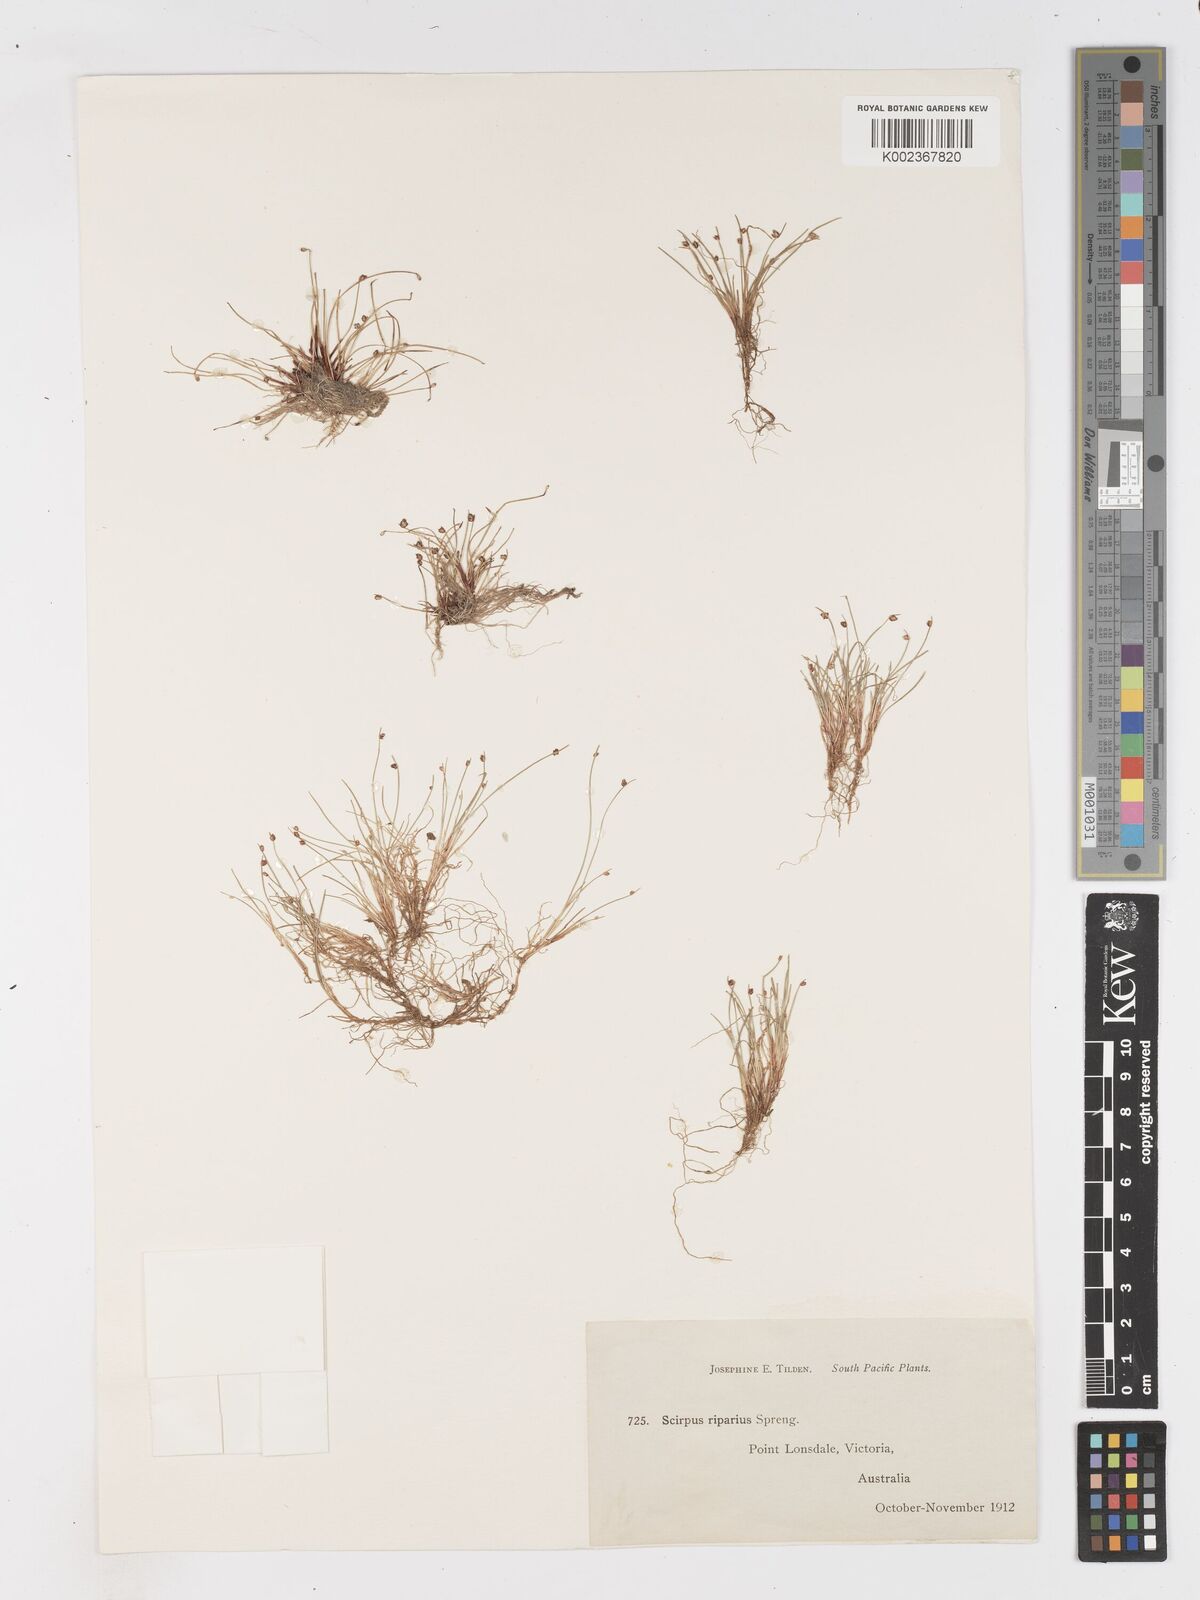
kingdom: Plantae
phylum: Tracheophyta
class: Liliopsida
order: Poales
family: Cyperaceae
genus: Isolepis
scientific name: Isolepis cernua
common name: Slender club-rush
